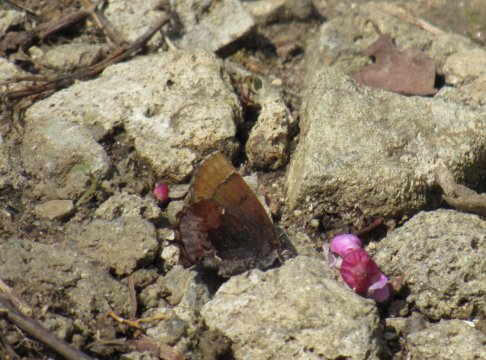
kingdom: Animalia
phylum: Arthropoda
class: Insecta
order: Lepidoptera
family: Lycaenidae
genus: Incisalia
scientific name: Incisalia henrici
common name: Henry's Elfin
